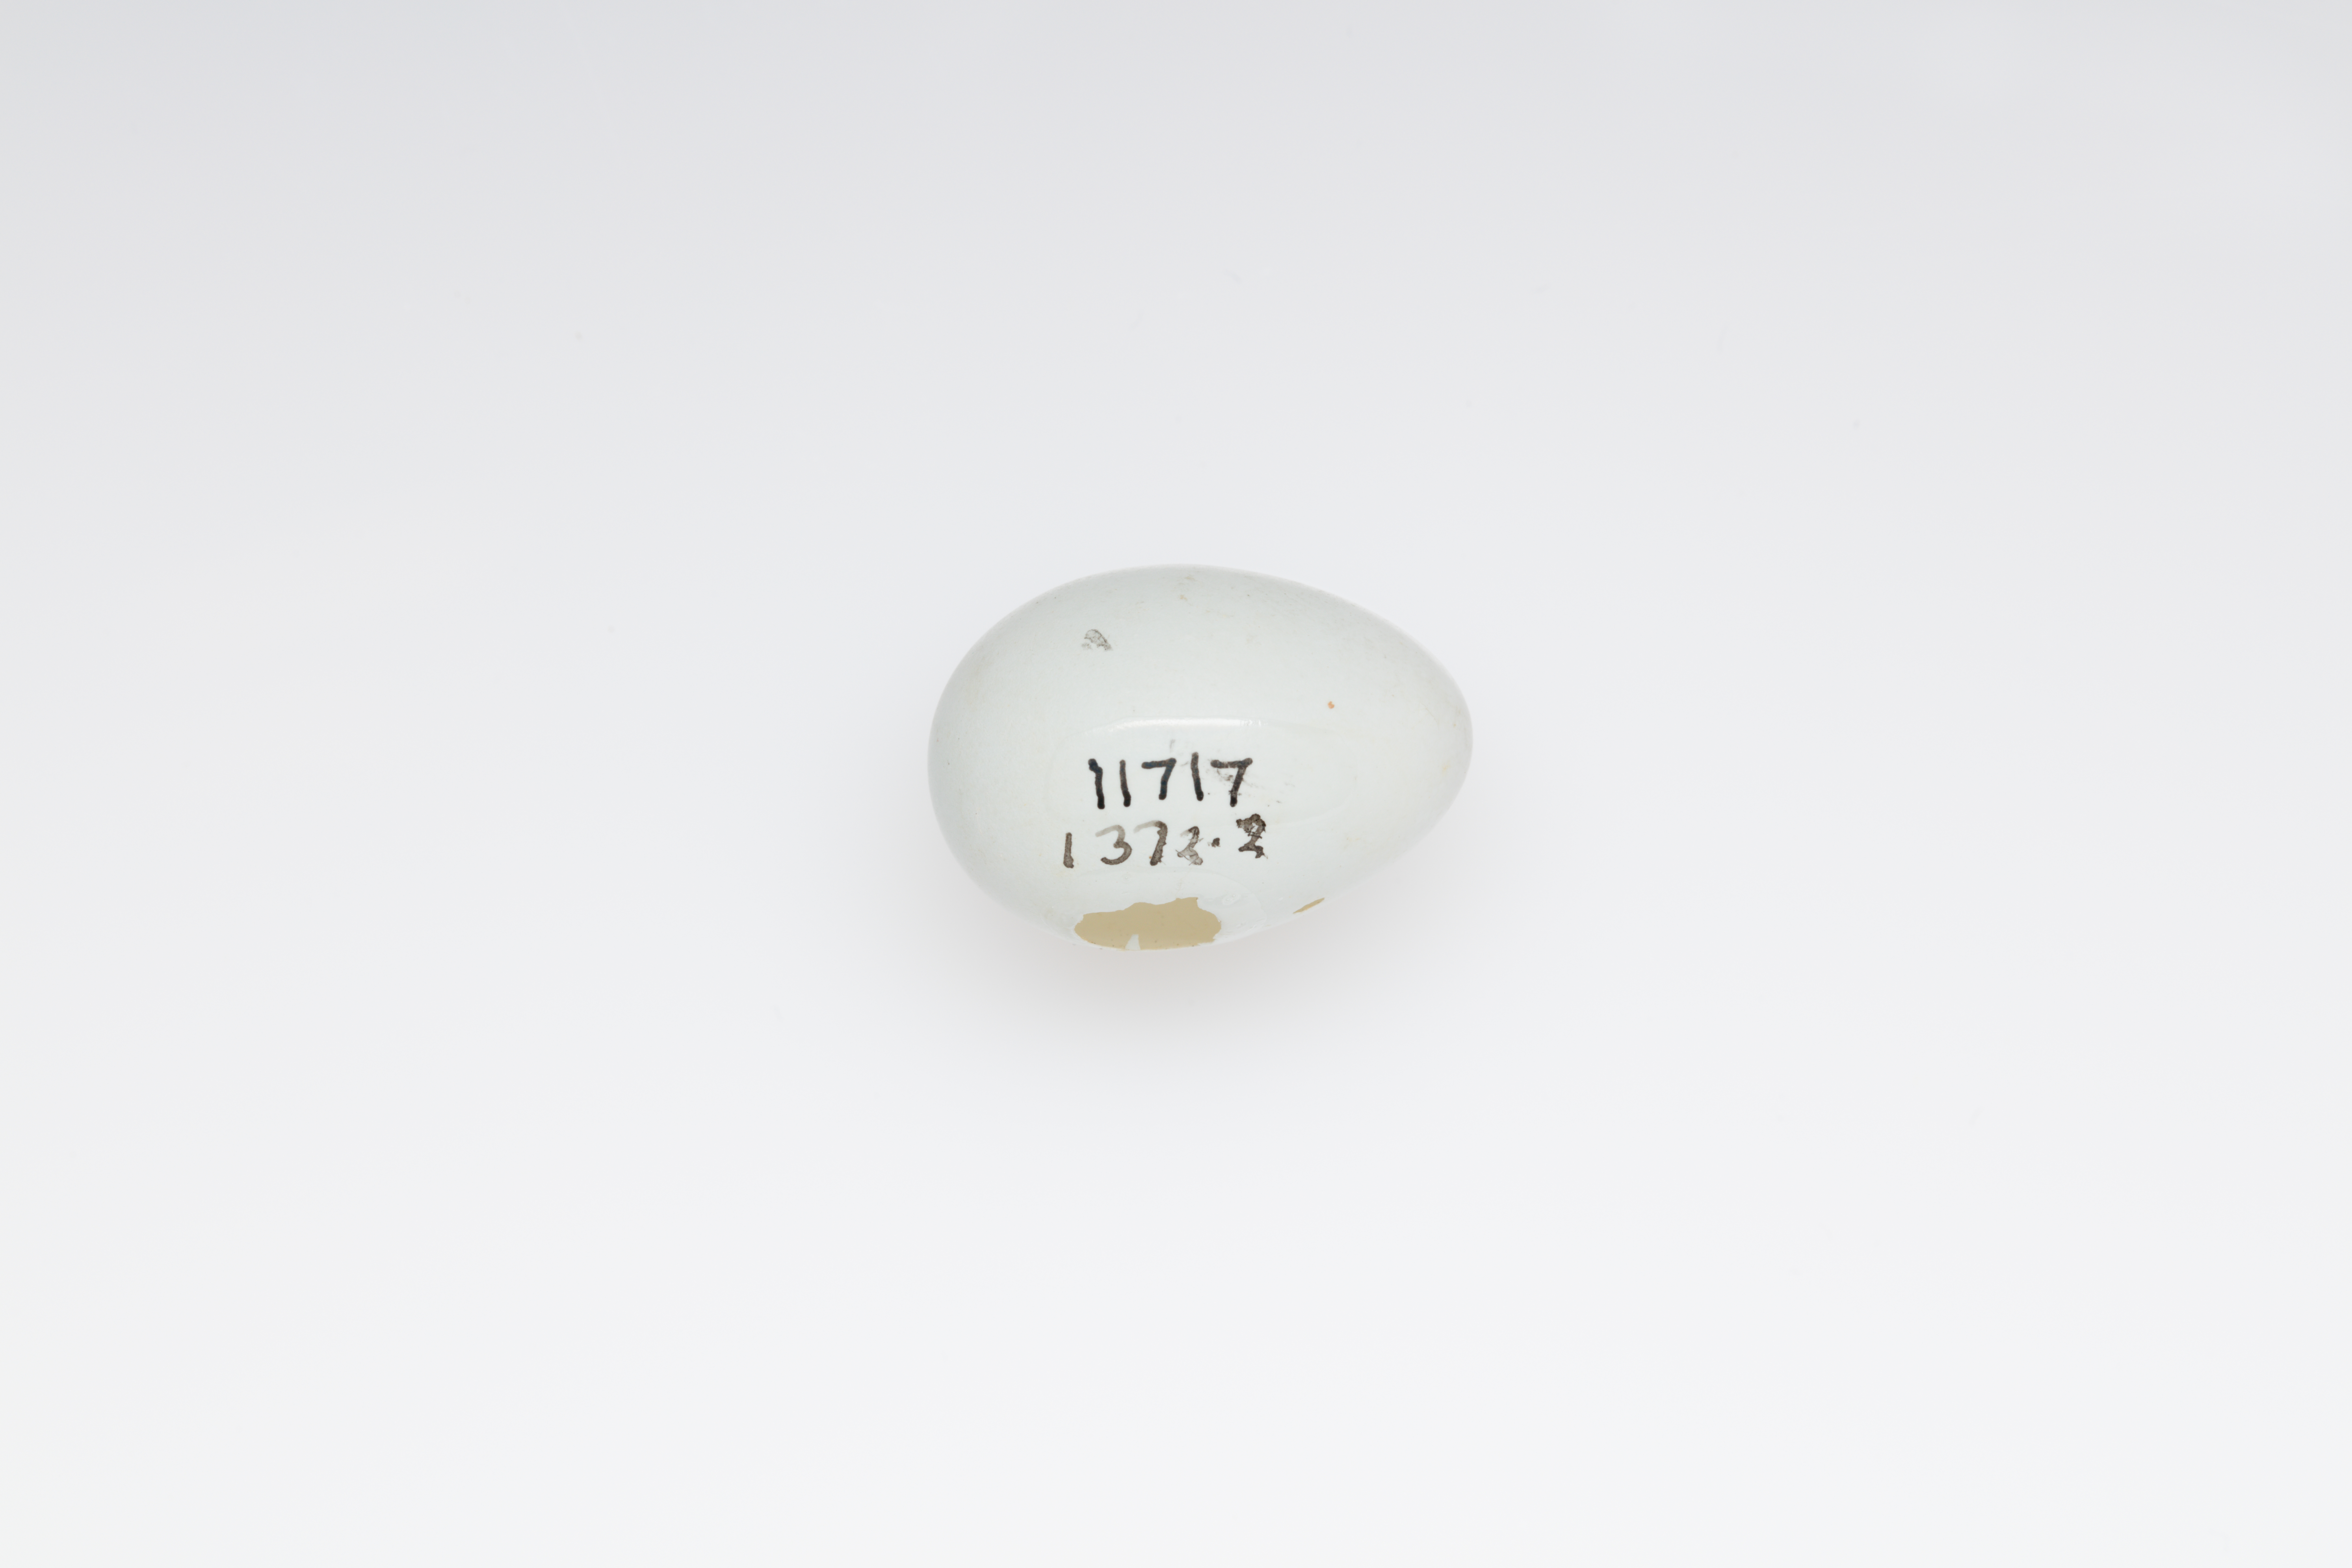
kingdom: Animalia
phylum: Chordata
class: Aves
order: Passeriformes
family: Zosteropidae
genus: Zosterops
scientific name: Zosterops albogularis
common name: White-chested white-eye
